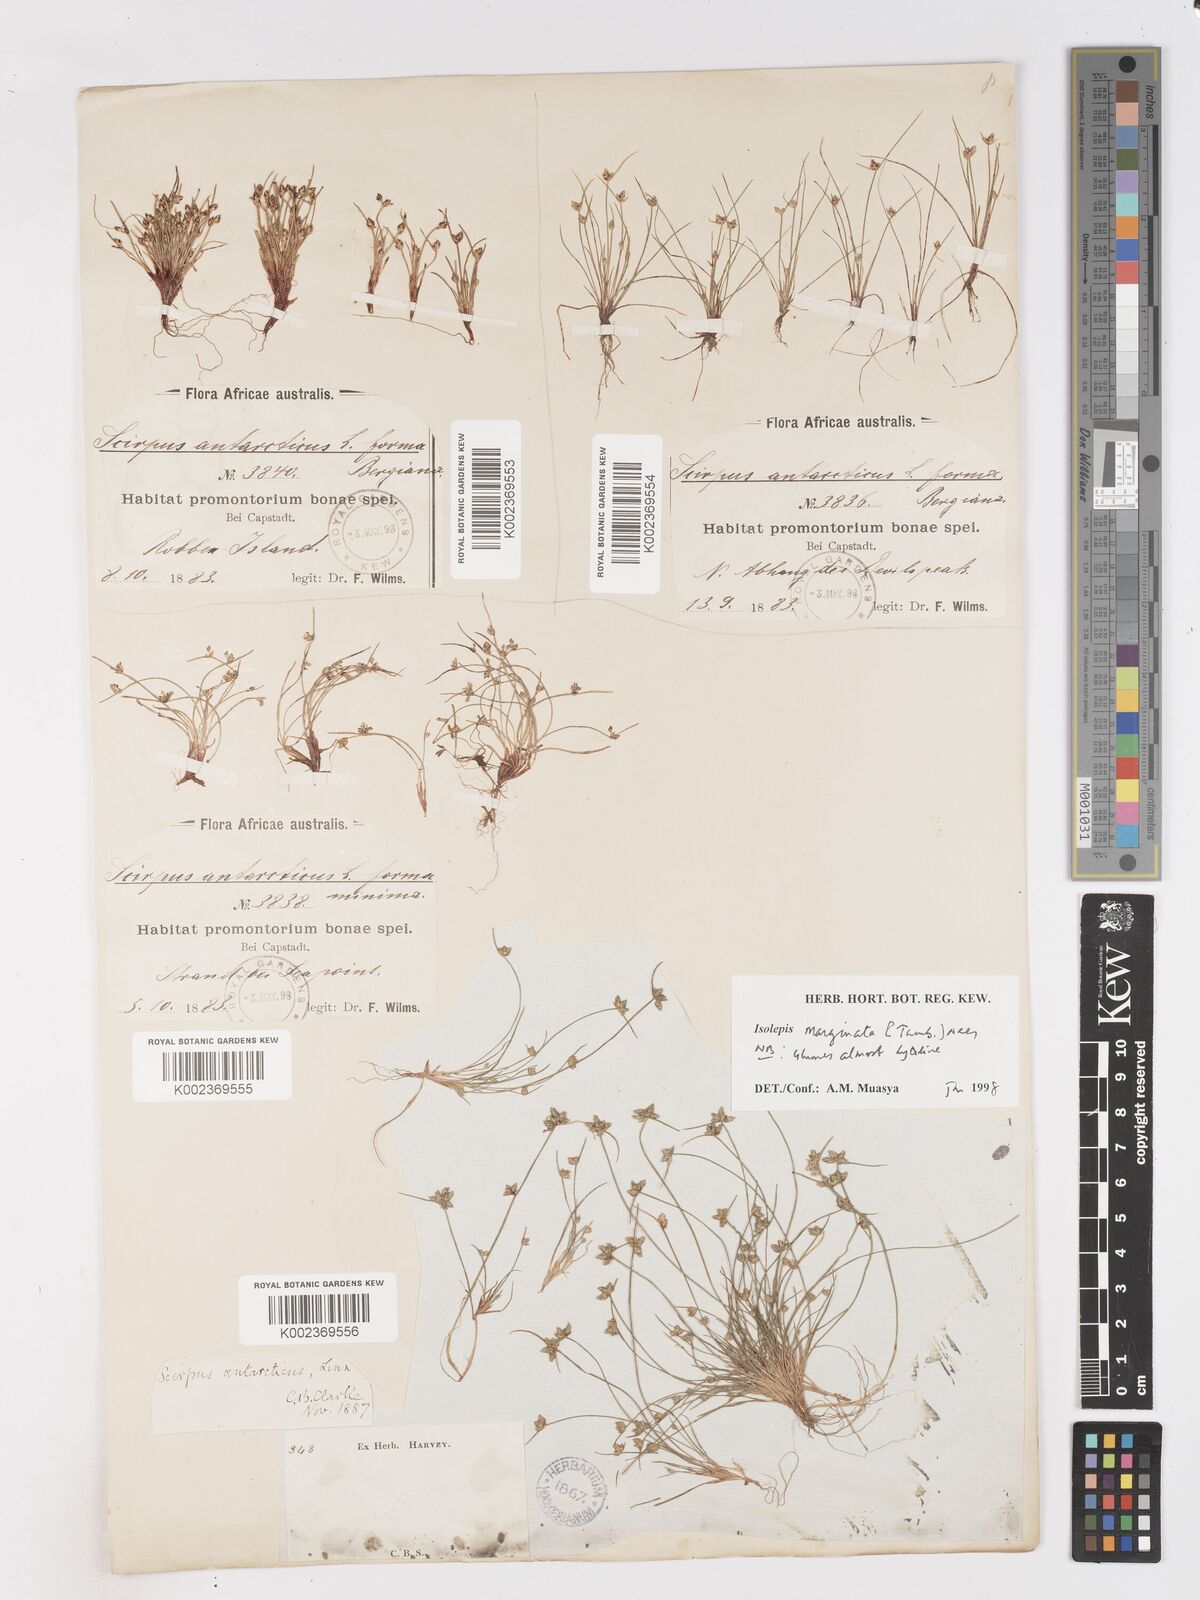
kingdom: Plantae
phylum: Tracheophyta
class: Liliopsida
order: Poales
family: Cyperaceae
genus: Isolepis
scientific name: Isolepis marginata
